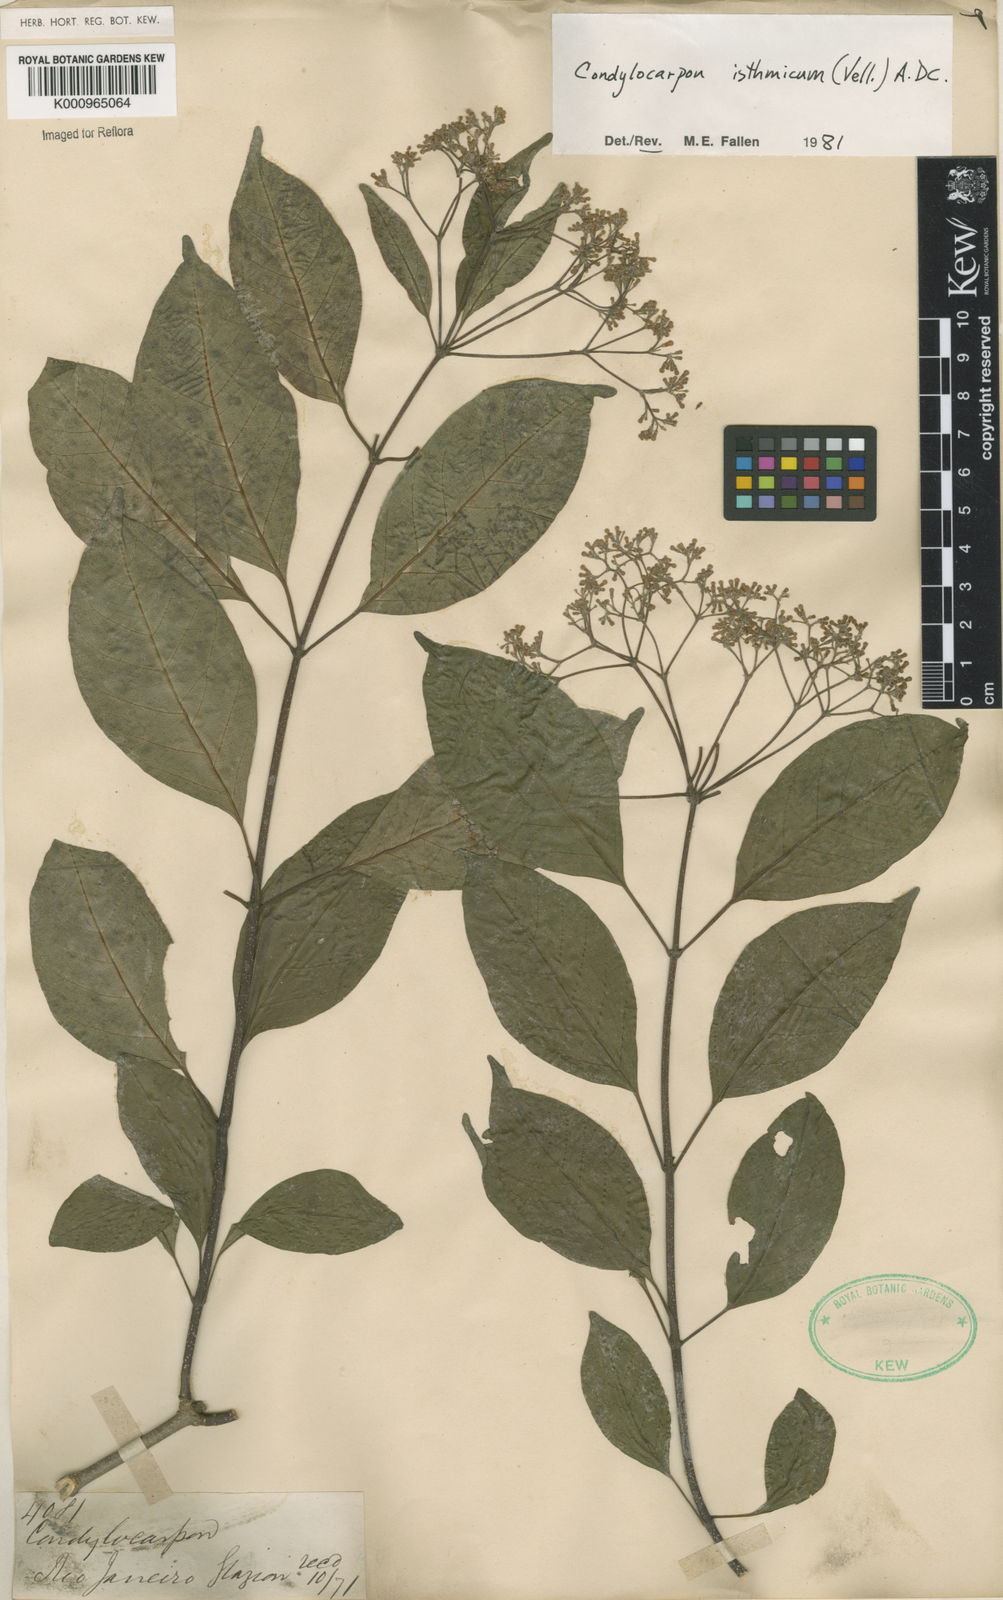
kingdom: Plantae
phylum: Tracheophyta
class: Magnoliopsida
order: Gentianales
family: Apocynaceae
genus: Condylocarpon
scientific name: Condylocarpon isthmicum
